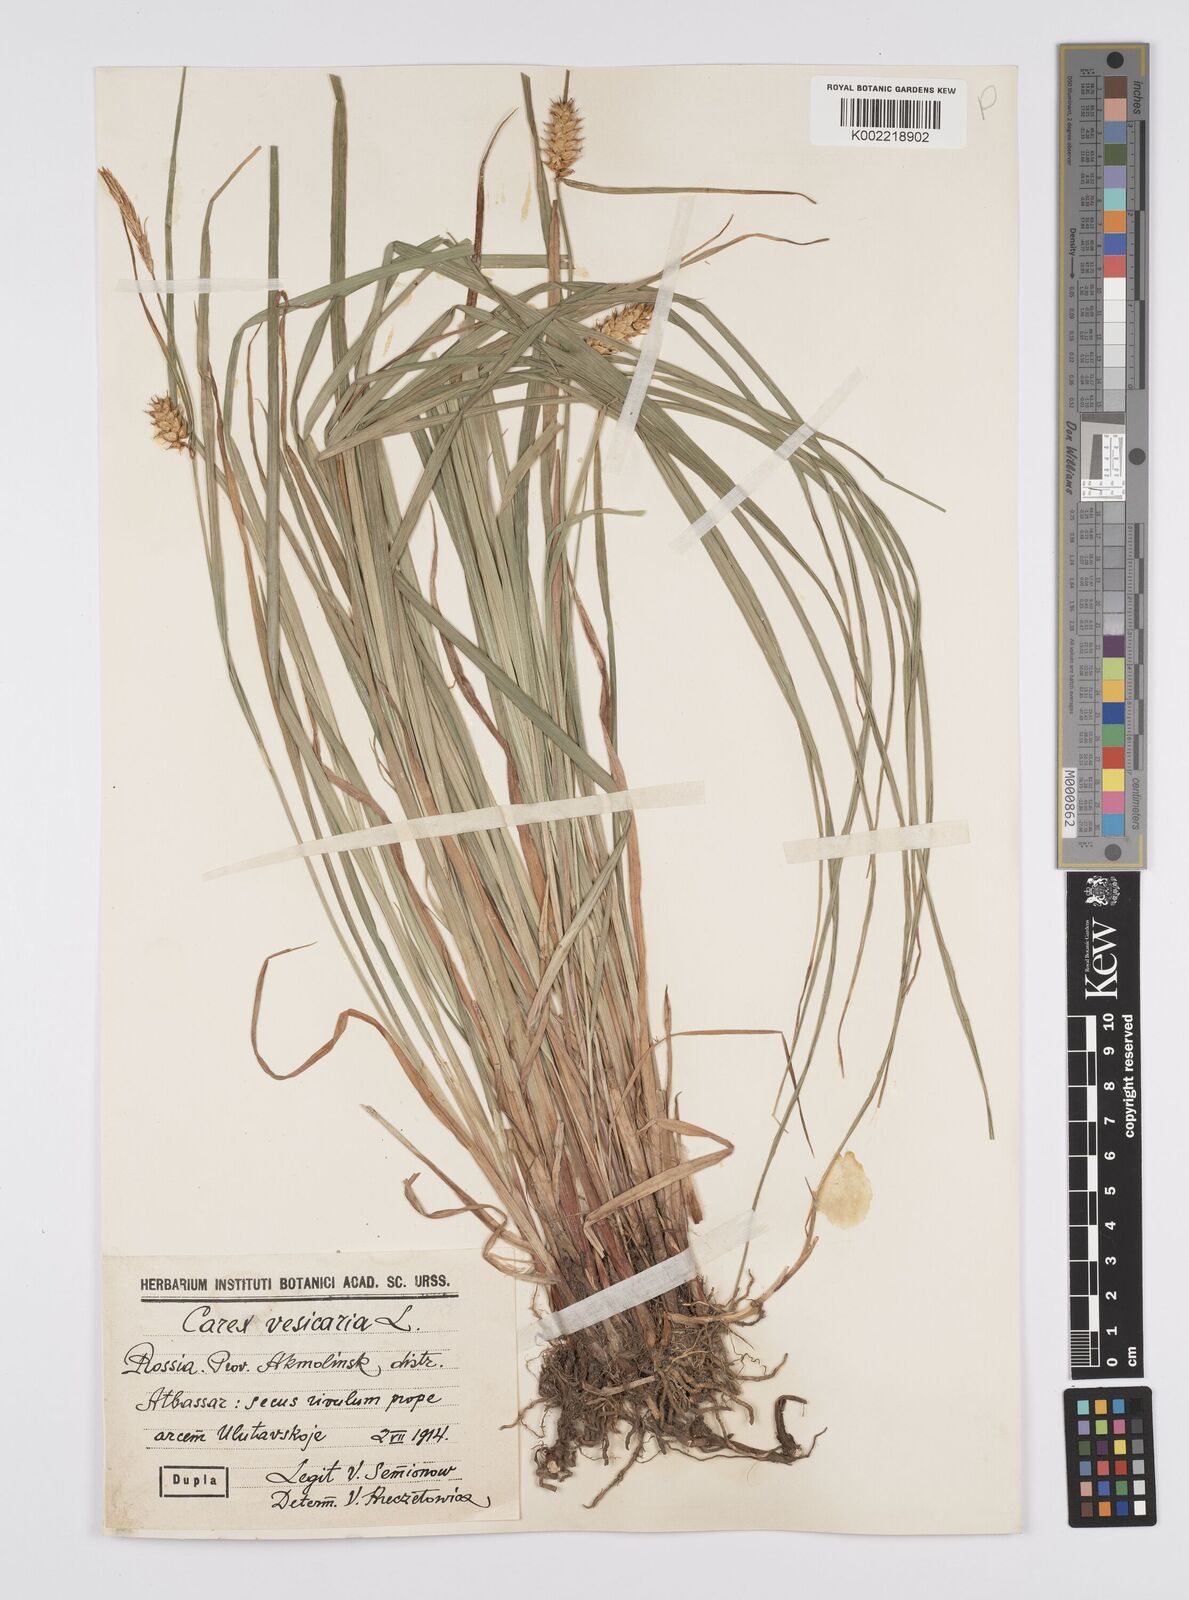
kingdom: Plantae
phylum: Tracheophyta
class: Liliopsida
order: Poales
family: Cyperaceae
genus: Carex
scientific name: Carex vesicaria
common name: Bladder-sedge
